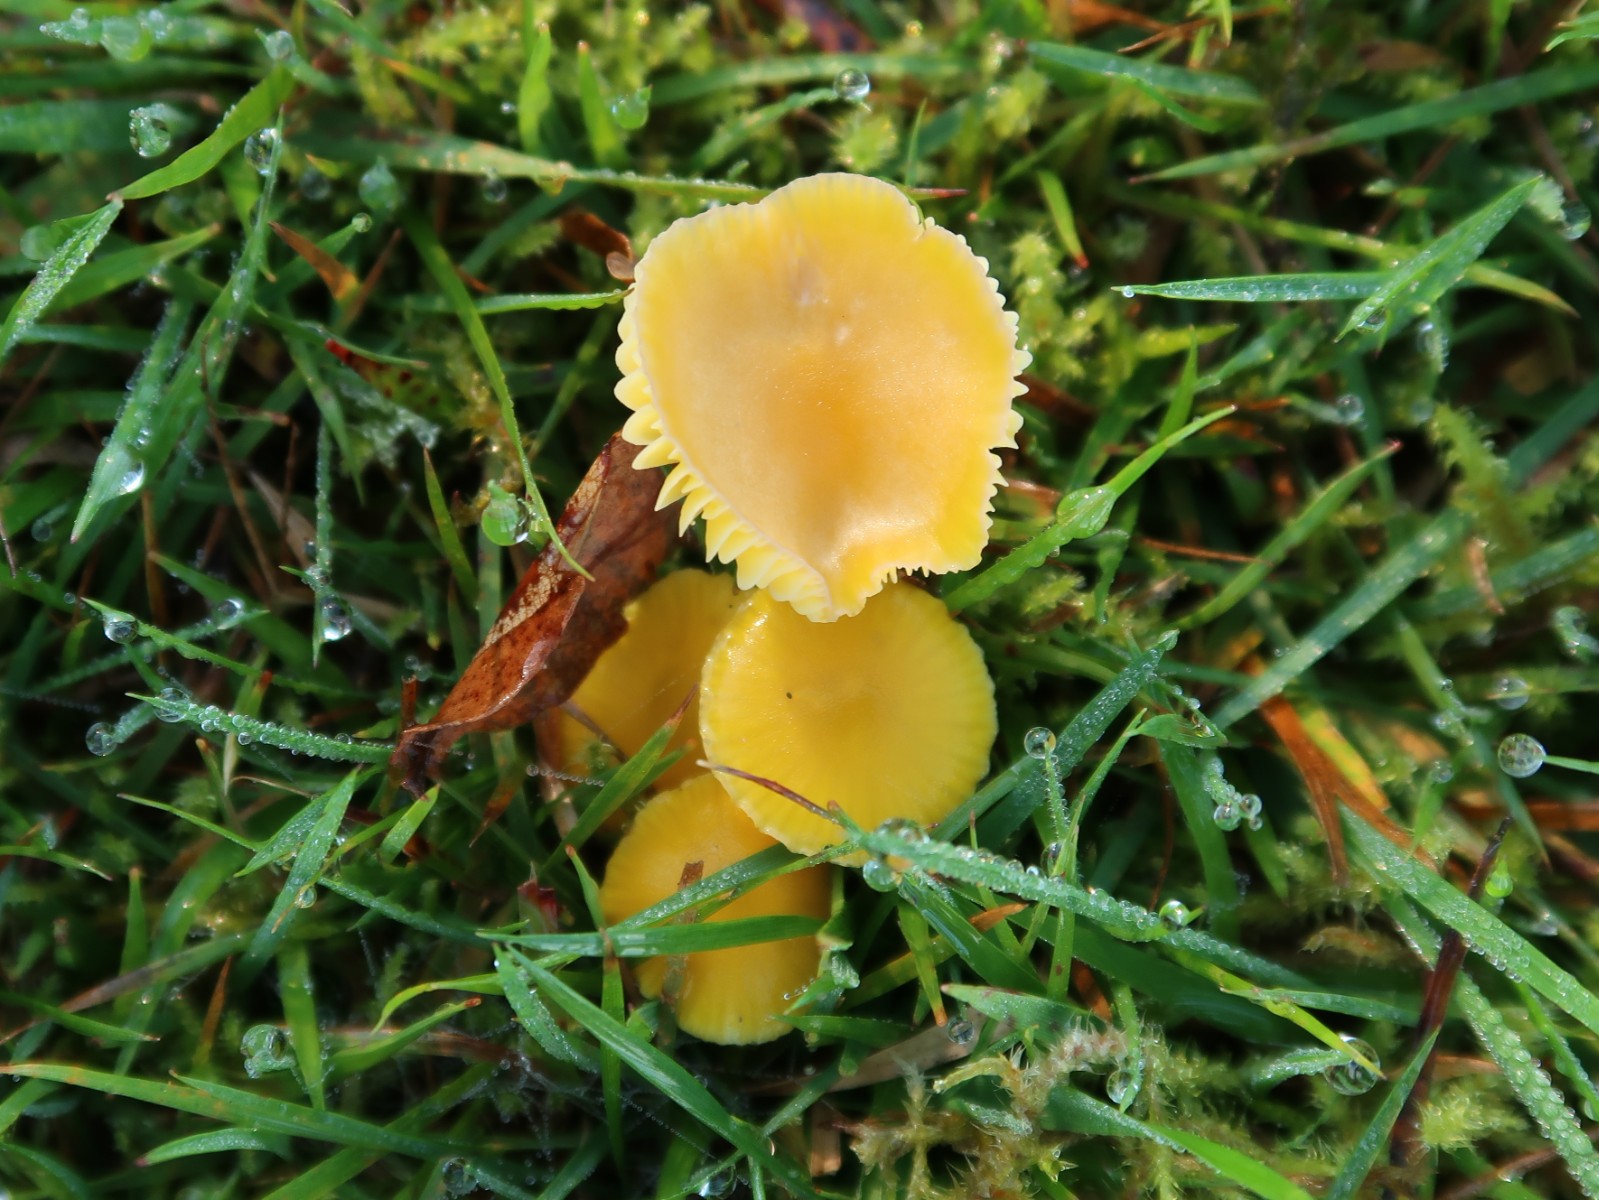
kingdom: Fungi
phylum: Basidiomycota
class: Agaricomycetes
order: Agaricales
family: Hygrophoraceae
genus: Hygrocybe
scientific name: Hygrocybe ceracea
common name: voksgul vokshat
